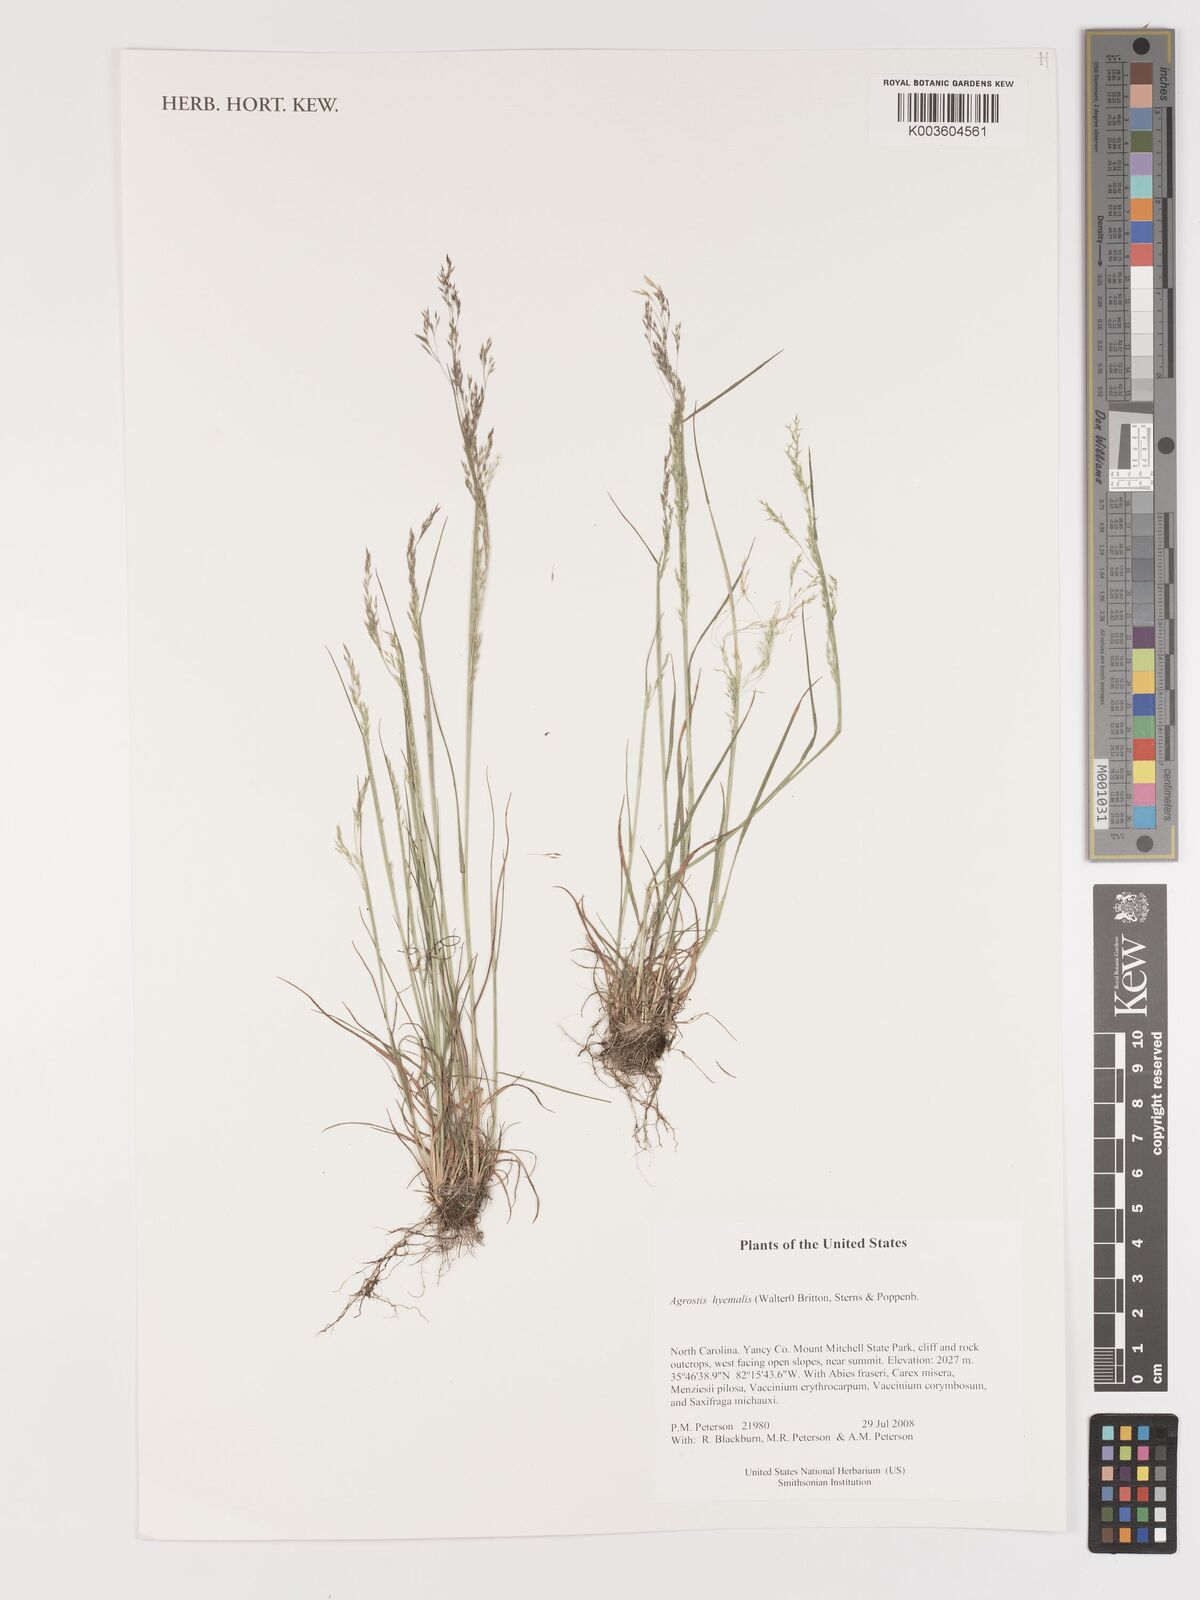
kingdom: Plantae
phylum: Tracheophyta
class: Liliopsida
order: Poales
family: Poaceae
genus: Agrostis
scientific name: Agrostis hyemalis
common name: Small bent
